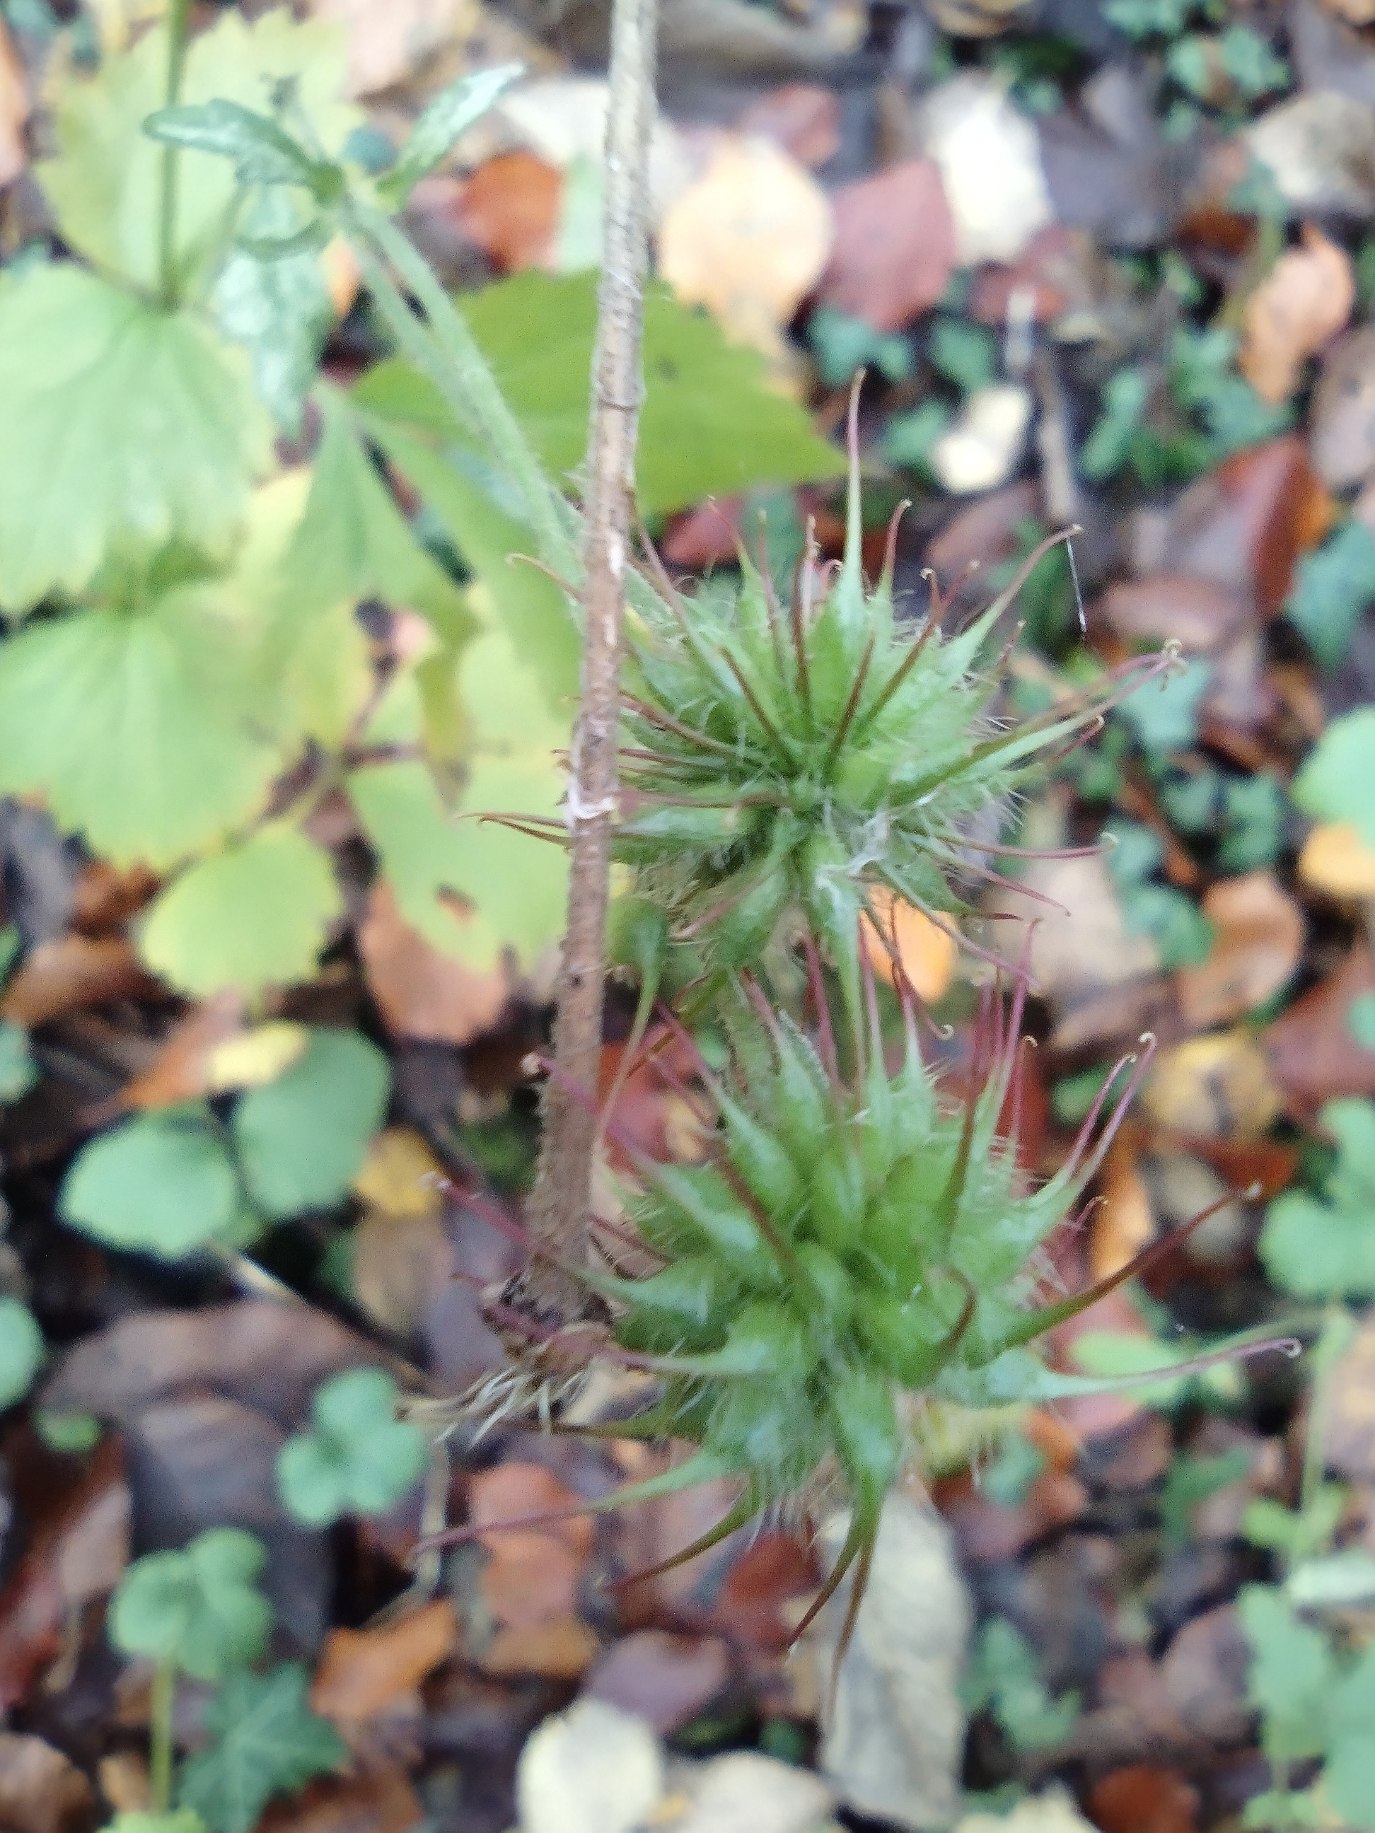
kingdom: Plantae
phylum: Tracheophyta
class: Magnoliopsida
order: Rosales
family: Rosaceae
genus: Geum
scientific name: Geum urbanum
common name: Feber-nellikerod
